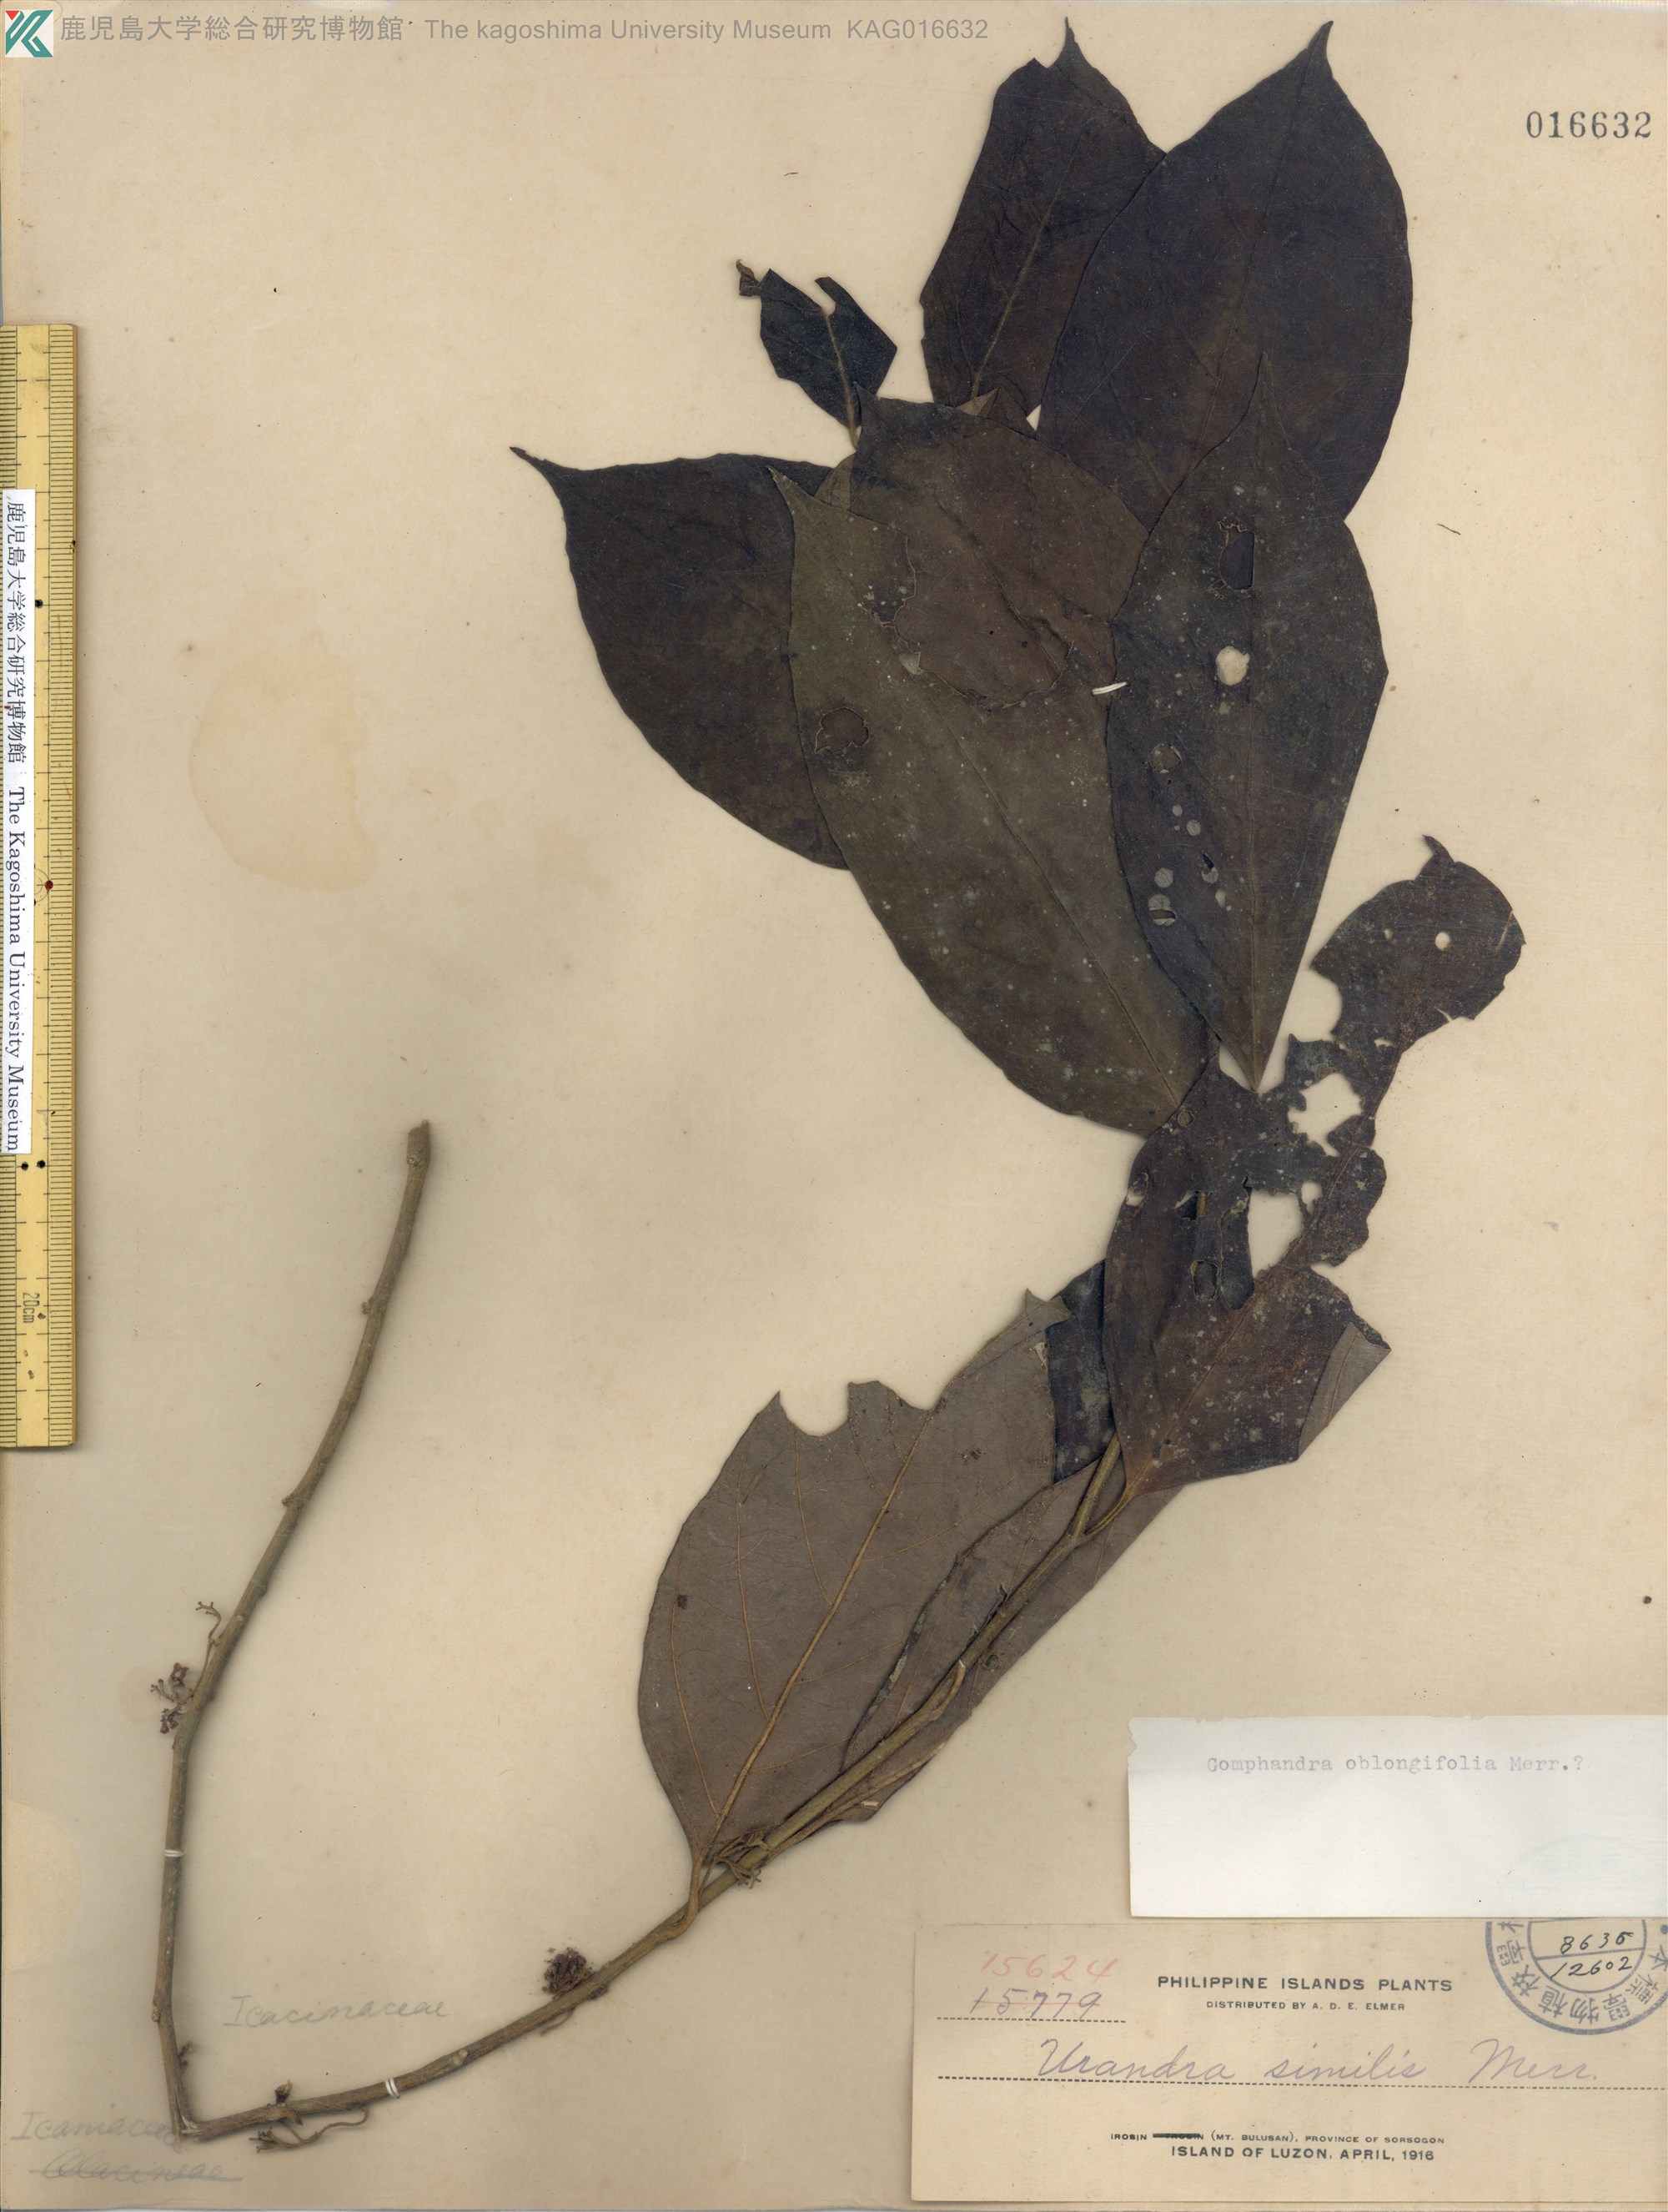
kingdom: Plantae
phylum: Tracheophyta
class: Magnoliopsida
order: Cardiopteridales
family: Stemonuraceae
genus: Gomphandra
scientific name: Gomphandra oblongifolia
